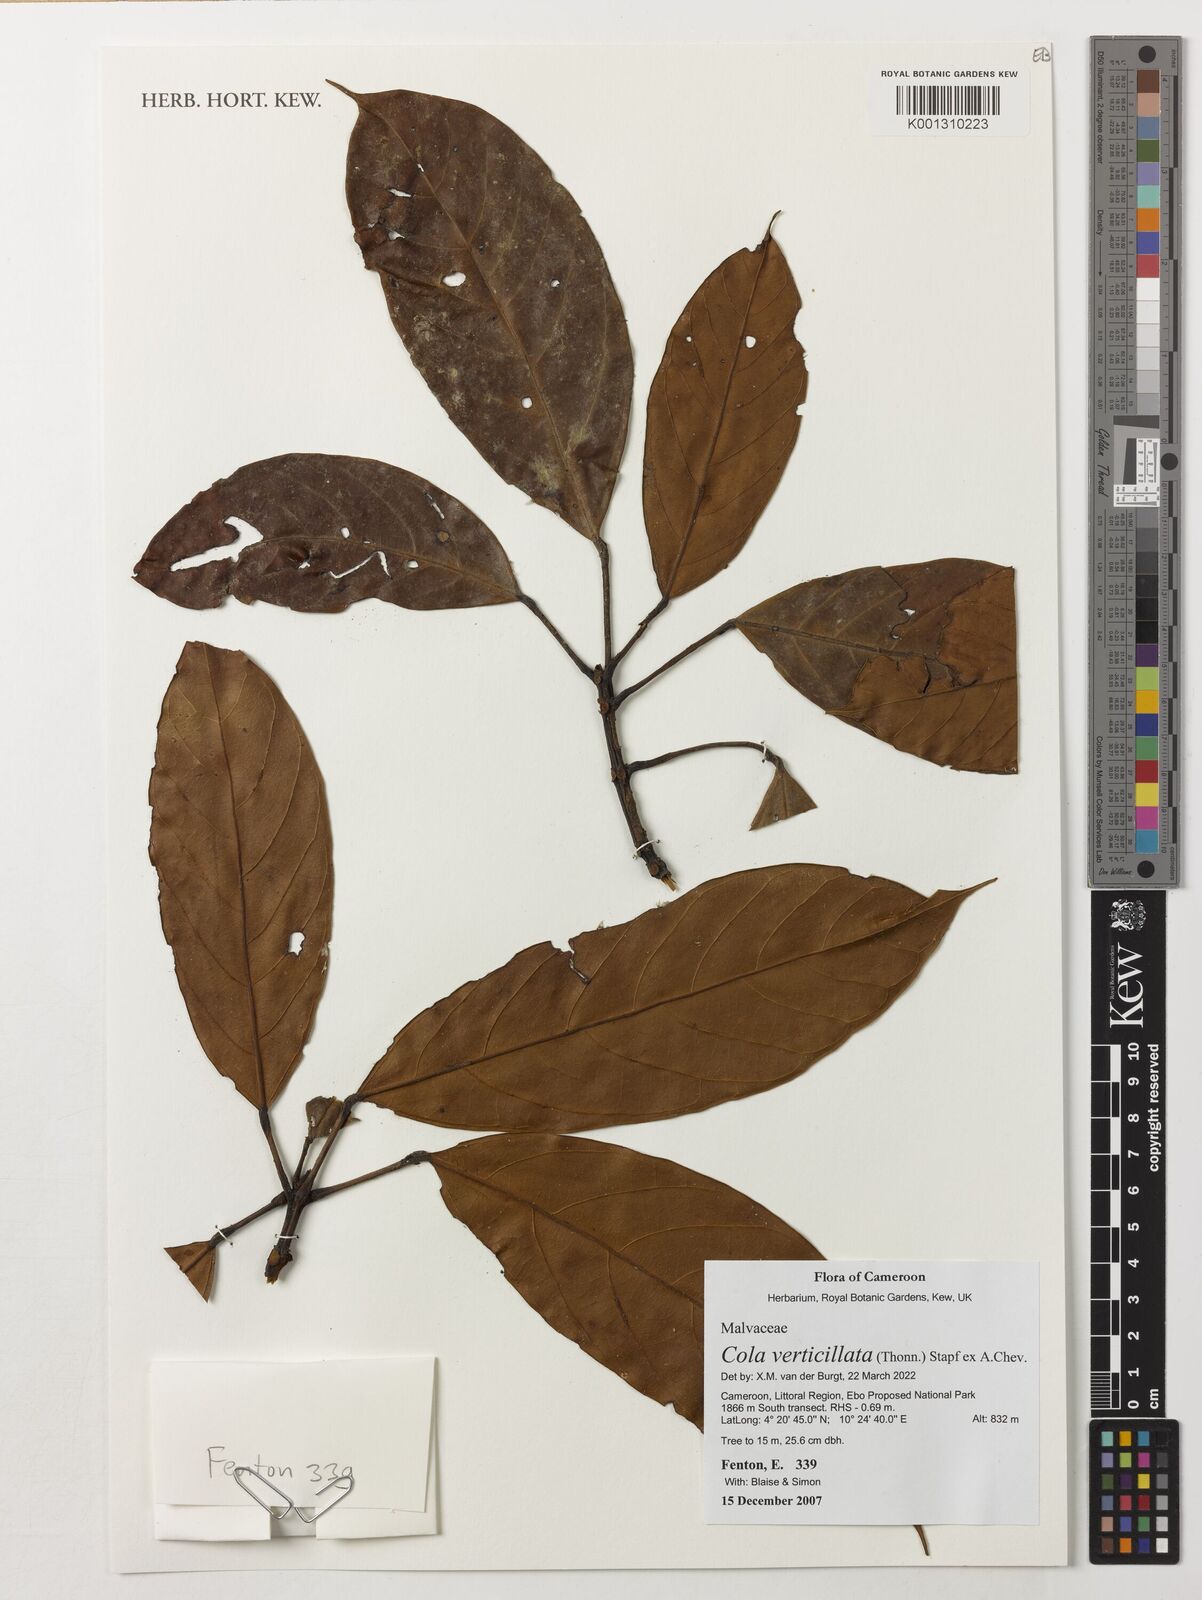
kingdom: Plantae
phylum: Tracheophyta
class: Magnoliopsida
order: Malvales
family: Malvaceae
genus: Cola
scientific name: Cola verticillata
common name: Owé cola
